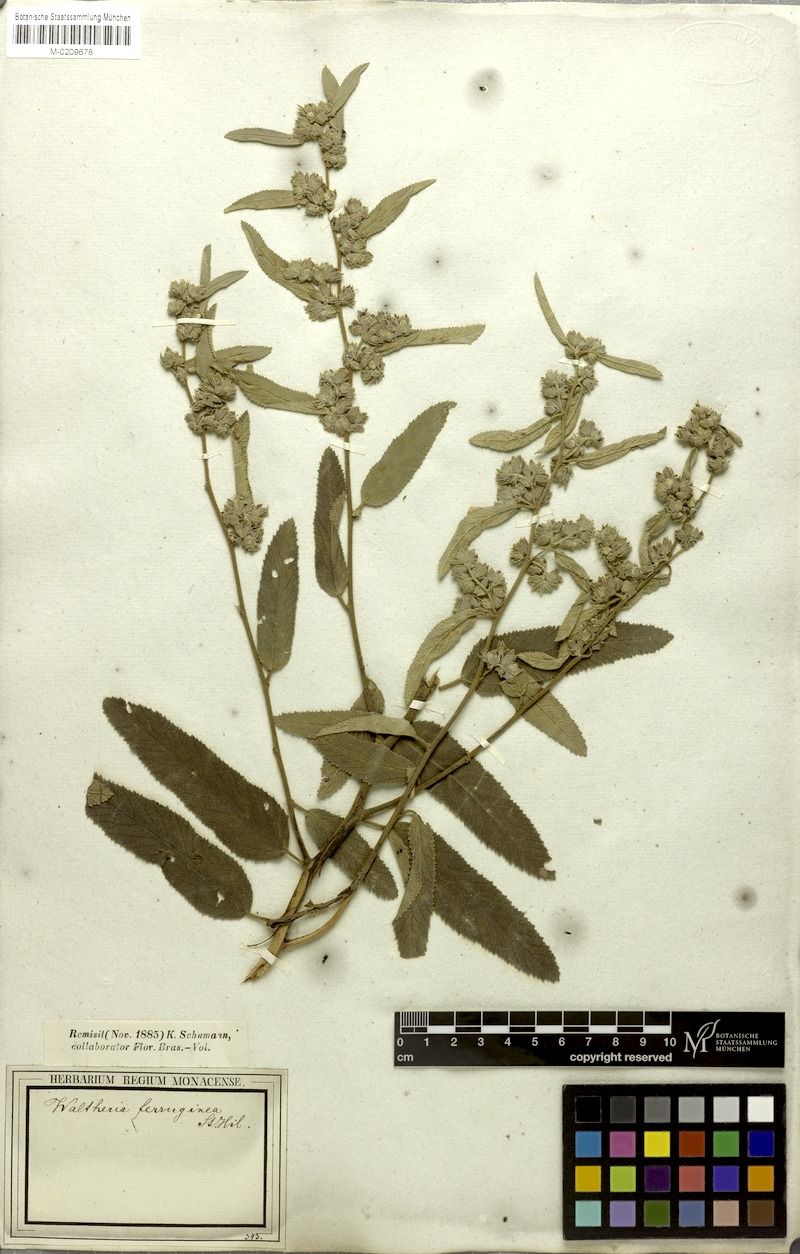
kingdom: Plantae
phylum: Tracheophyta
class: Magnoliopsida
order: Malvales
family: Malvaceae
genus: Waltheria
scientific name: Waltheria ferruginea
